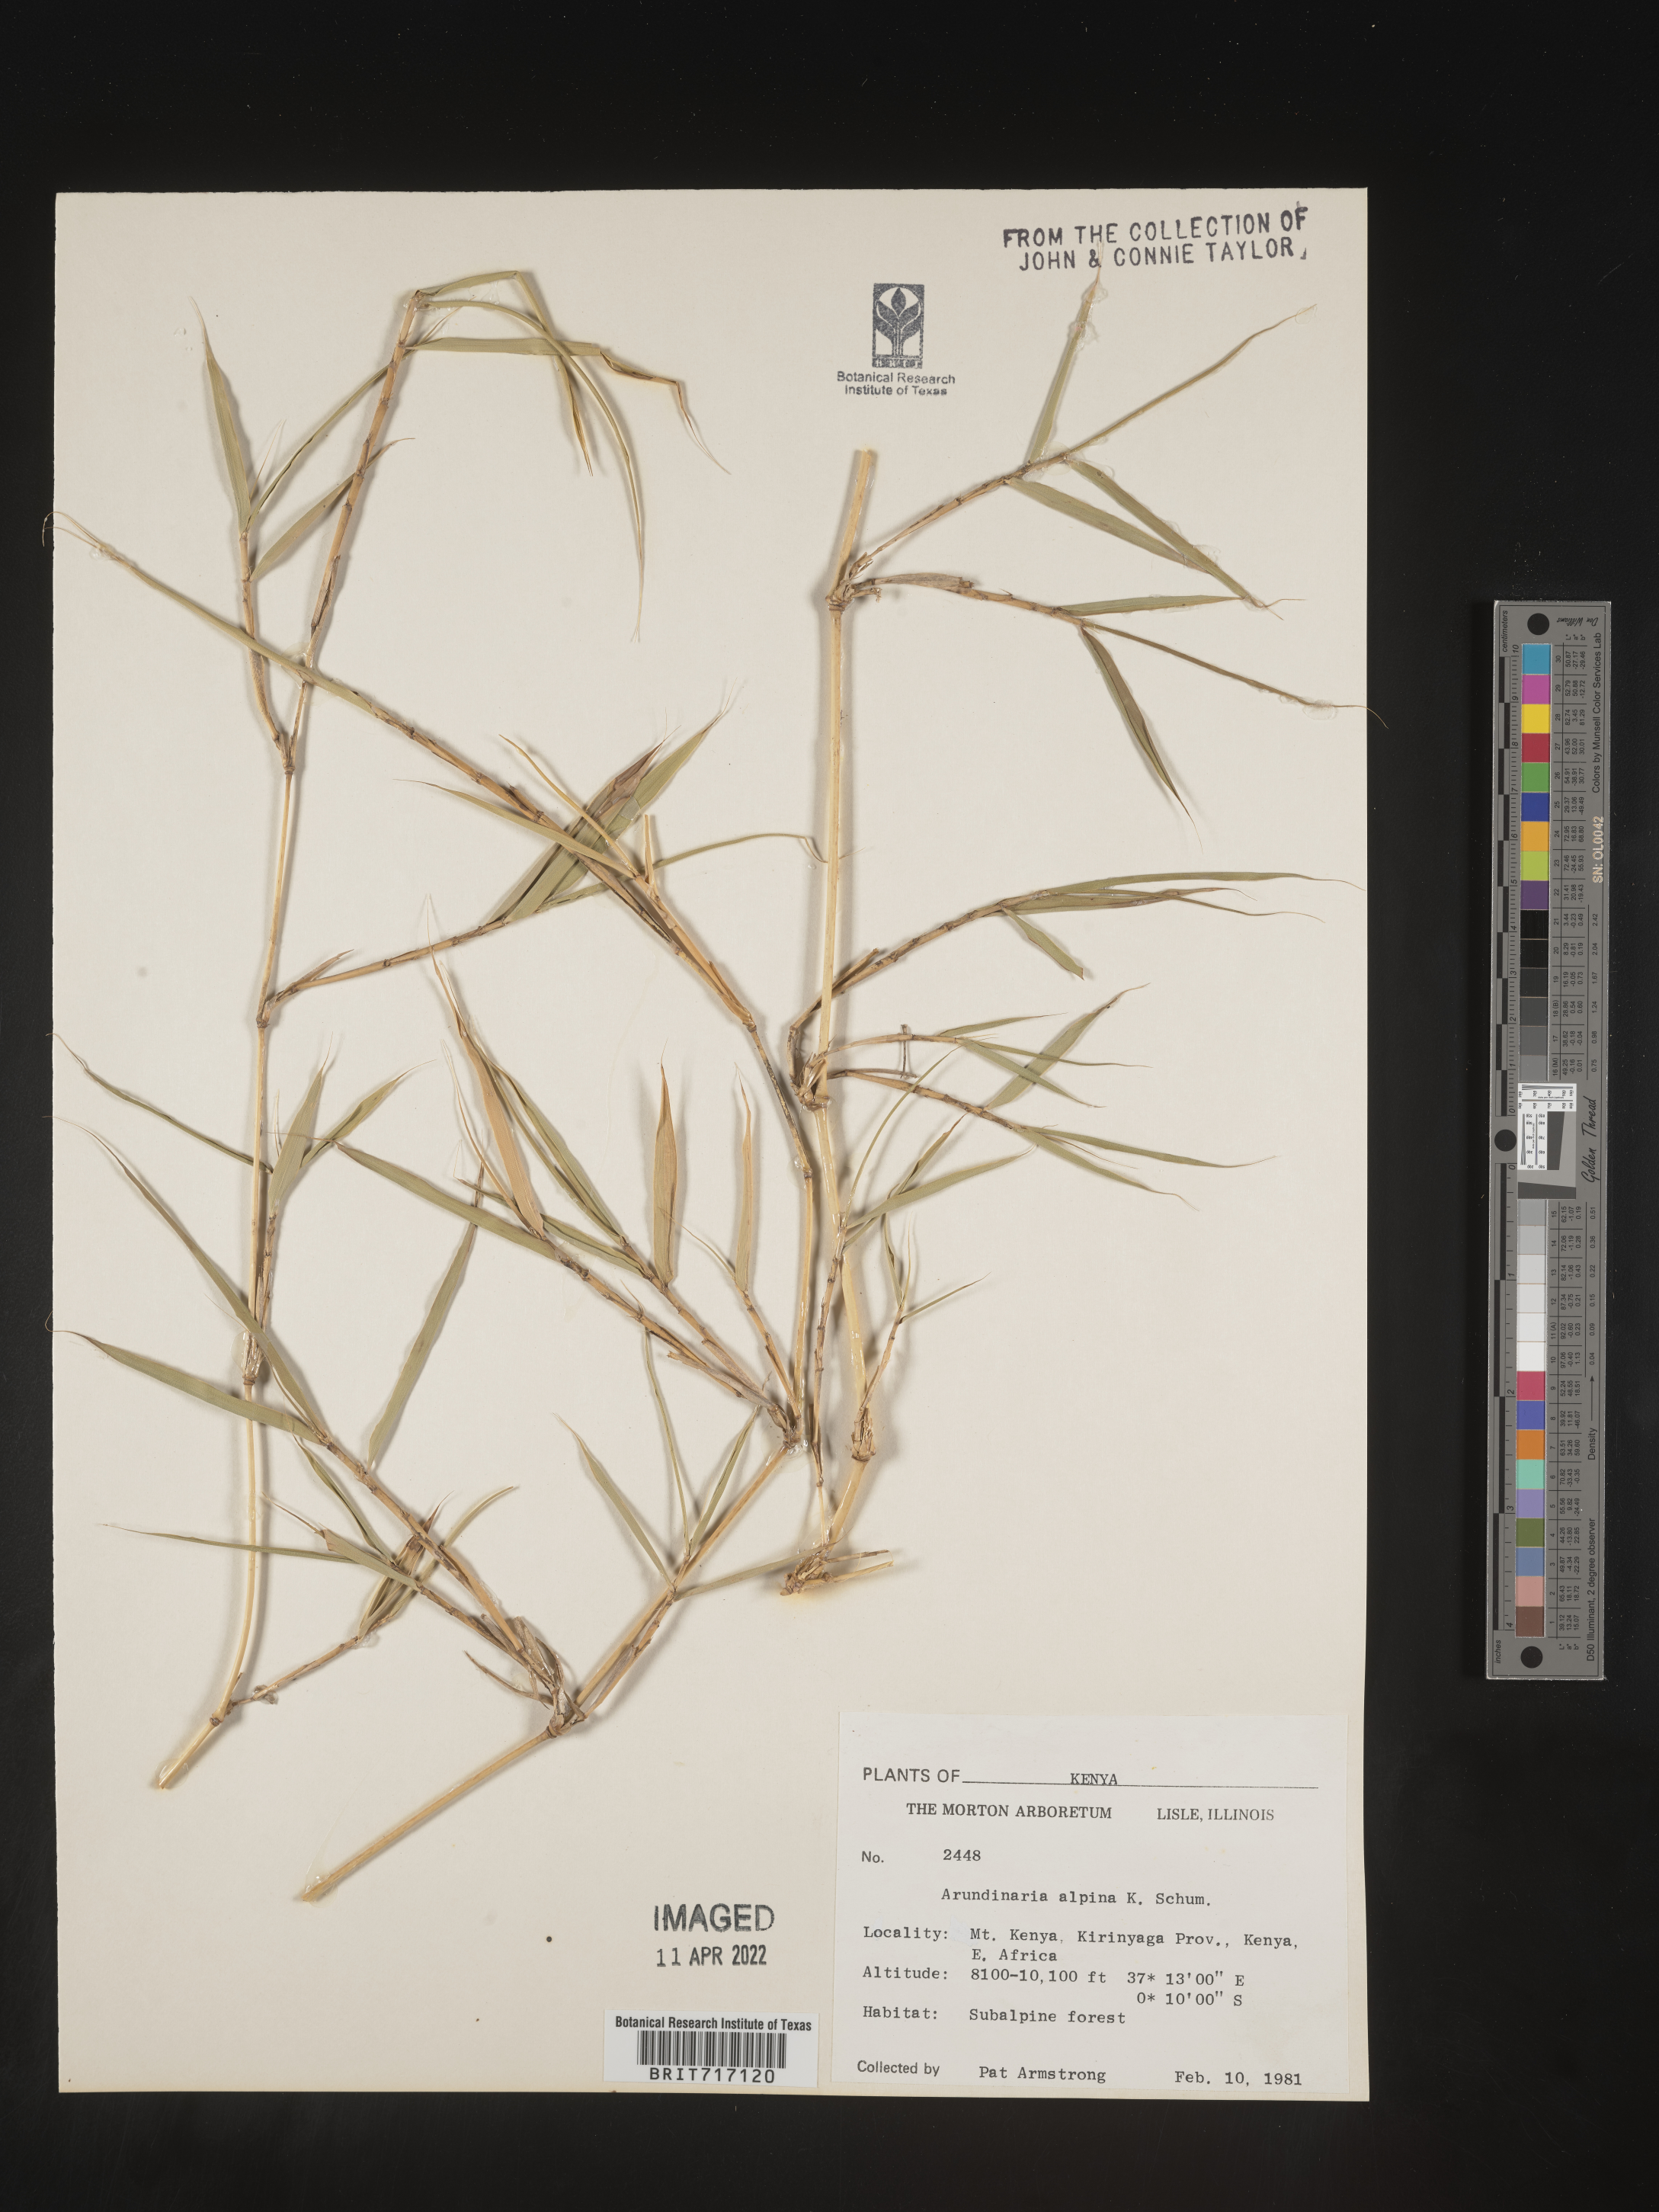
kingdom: Plantae
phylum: Tracheophyta
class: Liliopsida
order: Poales
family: Poaceae
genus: Arundinaria
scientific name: Arundinaria
